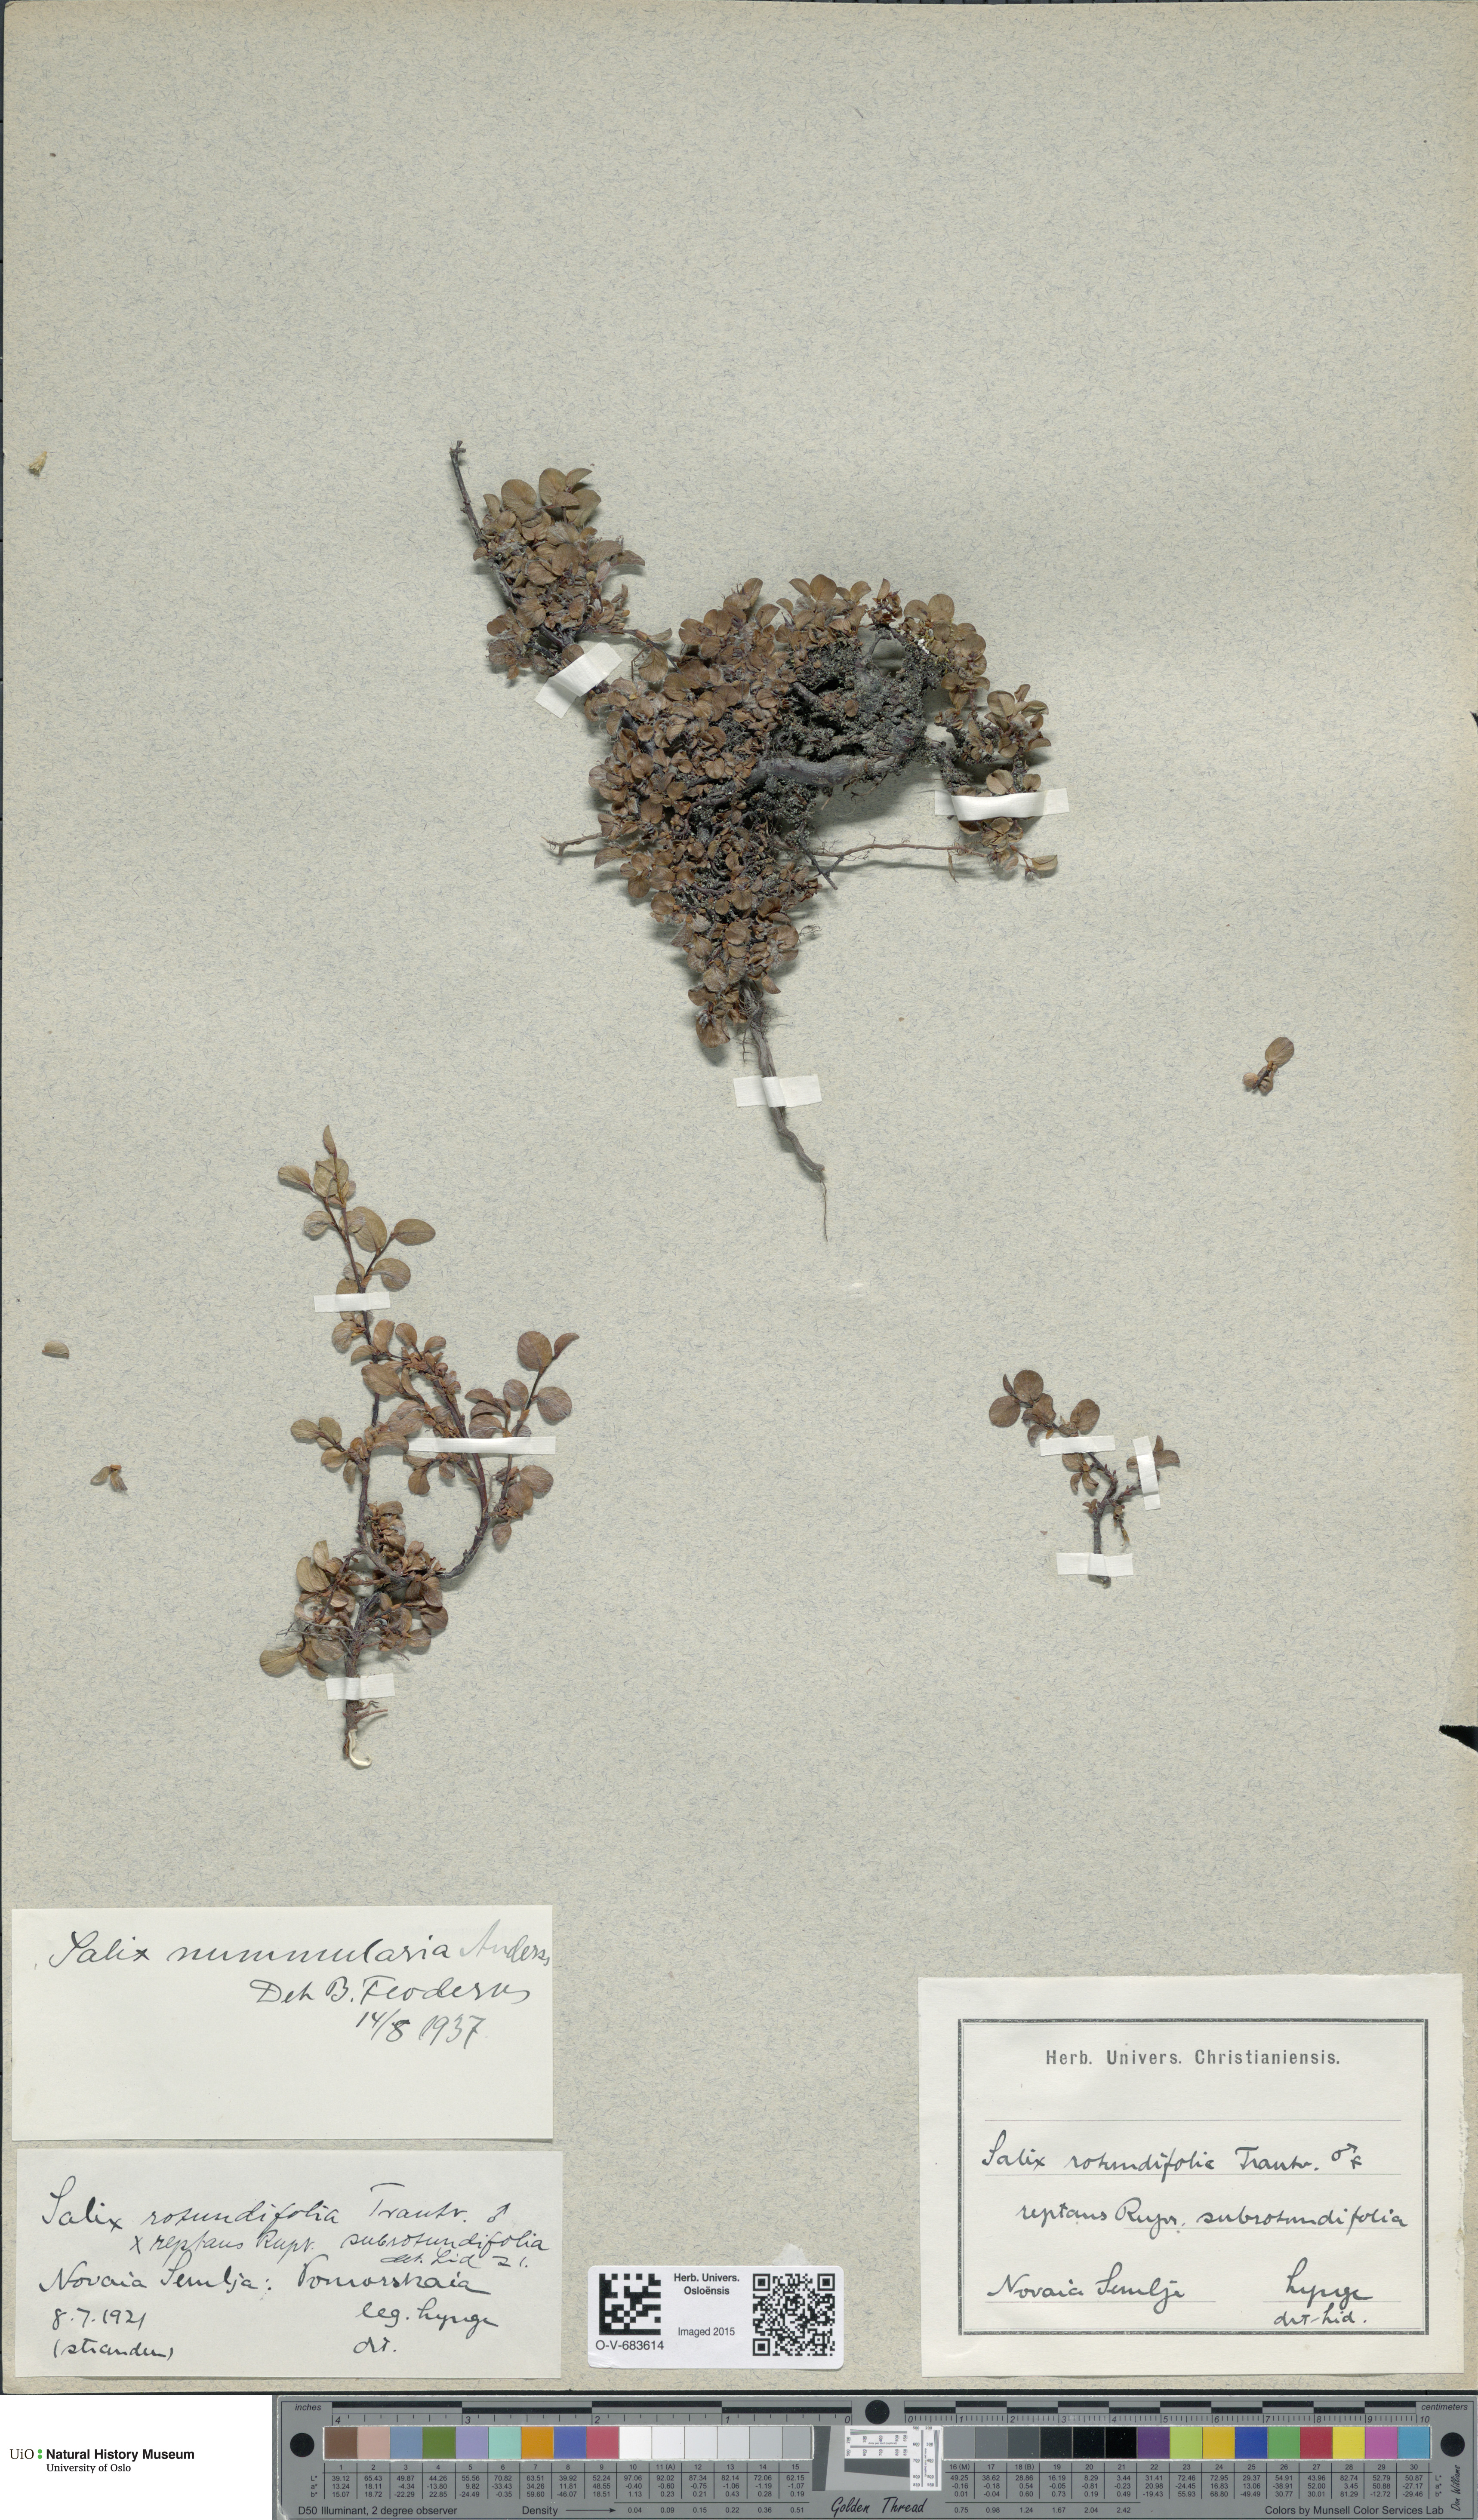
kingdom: Plantae
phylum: Tracheophyta
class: Magnoliopsida
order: Malpighiales
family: Salicaceae
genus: Salix
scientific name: Salix nummularia
